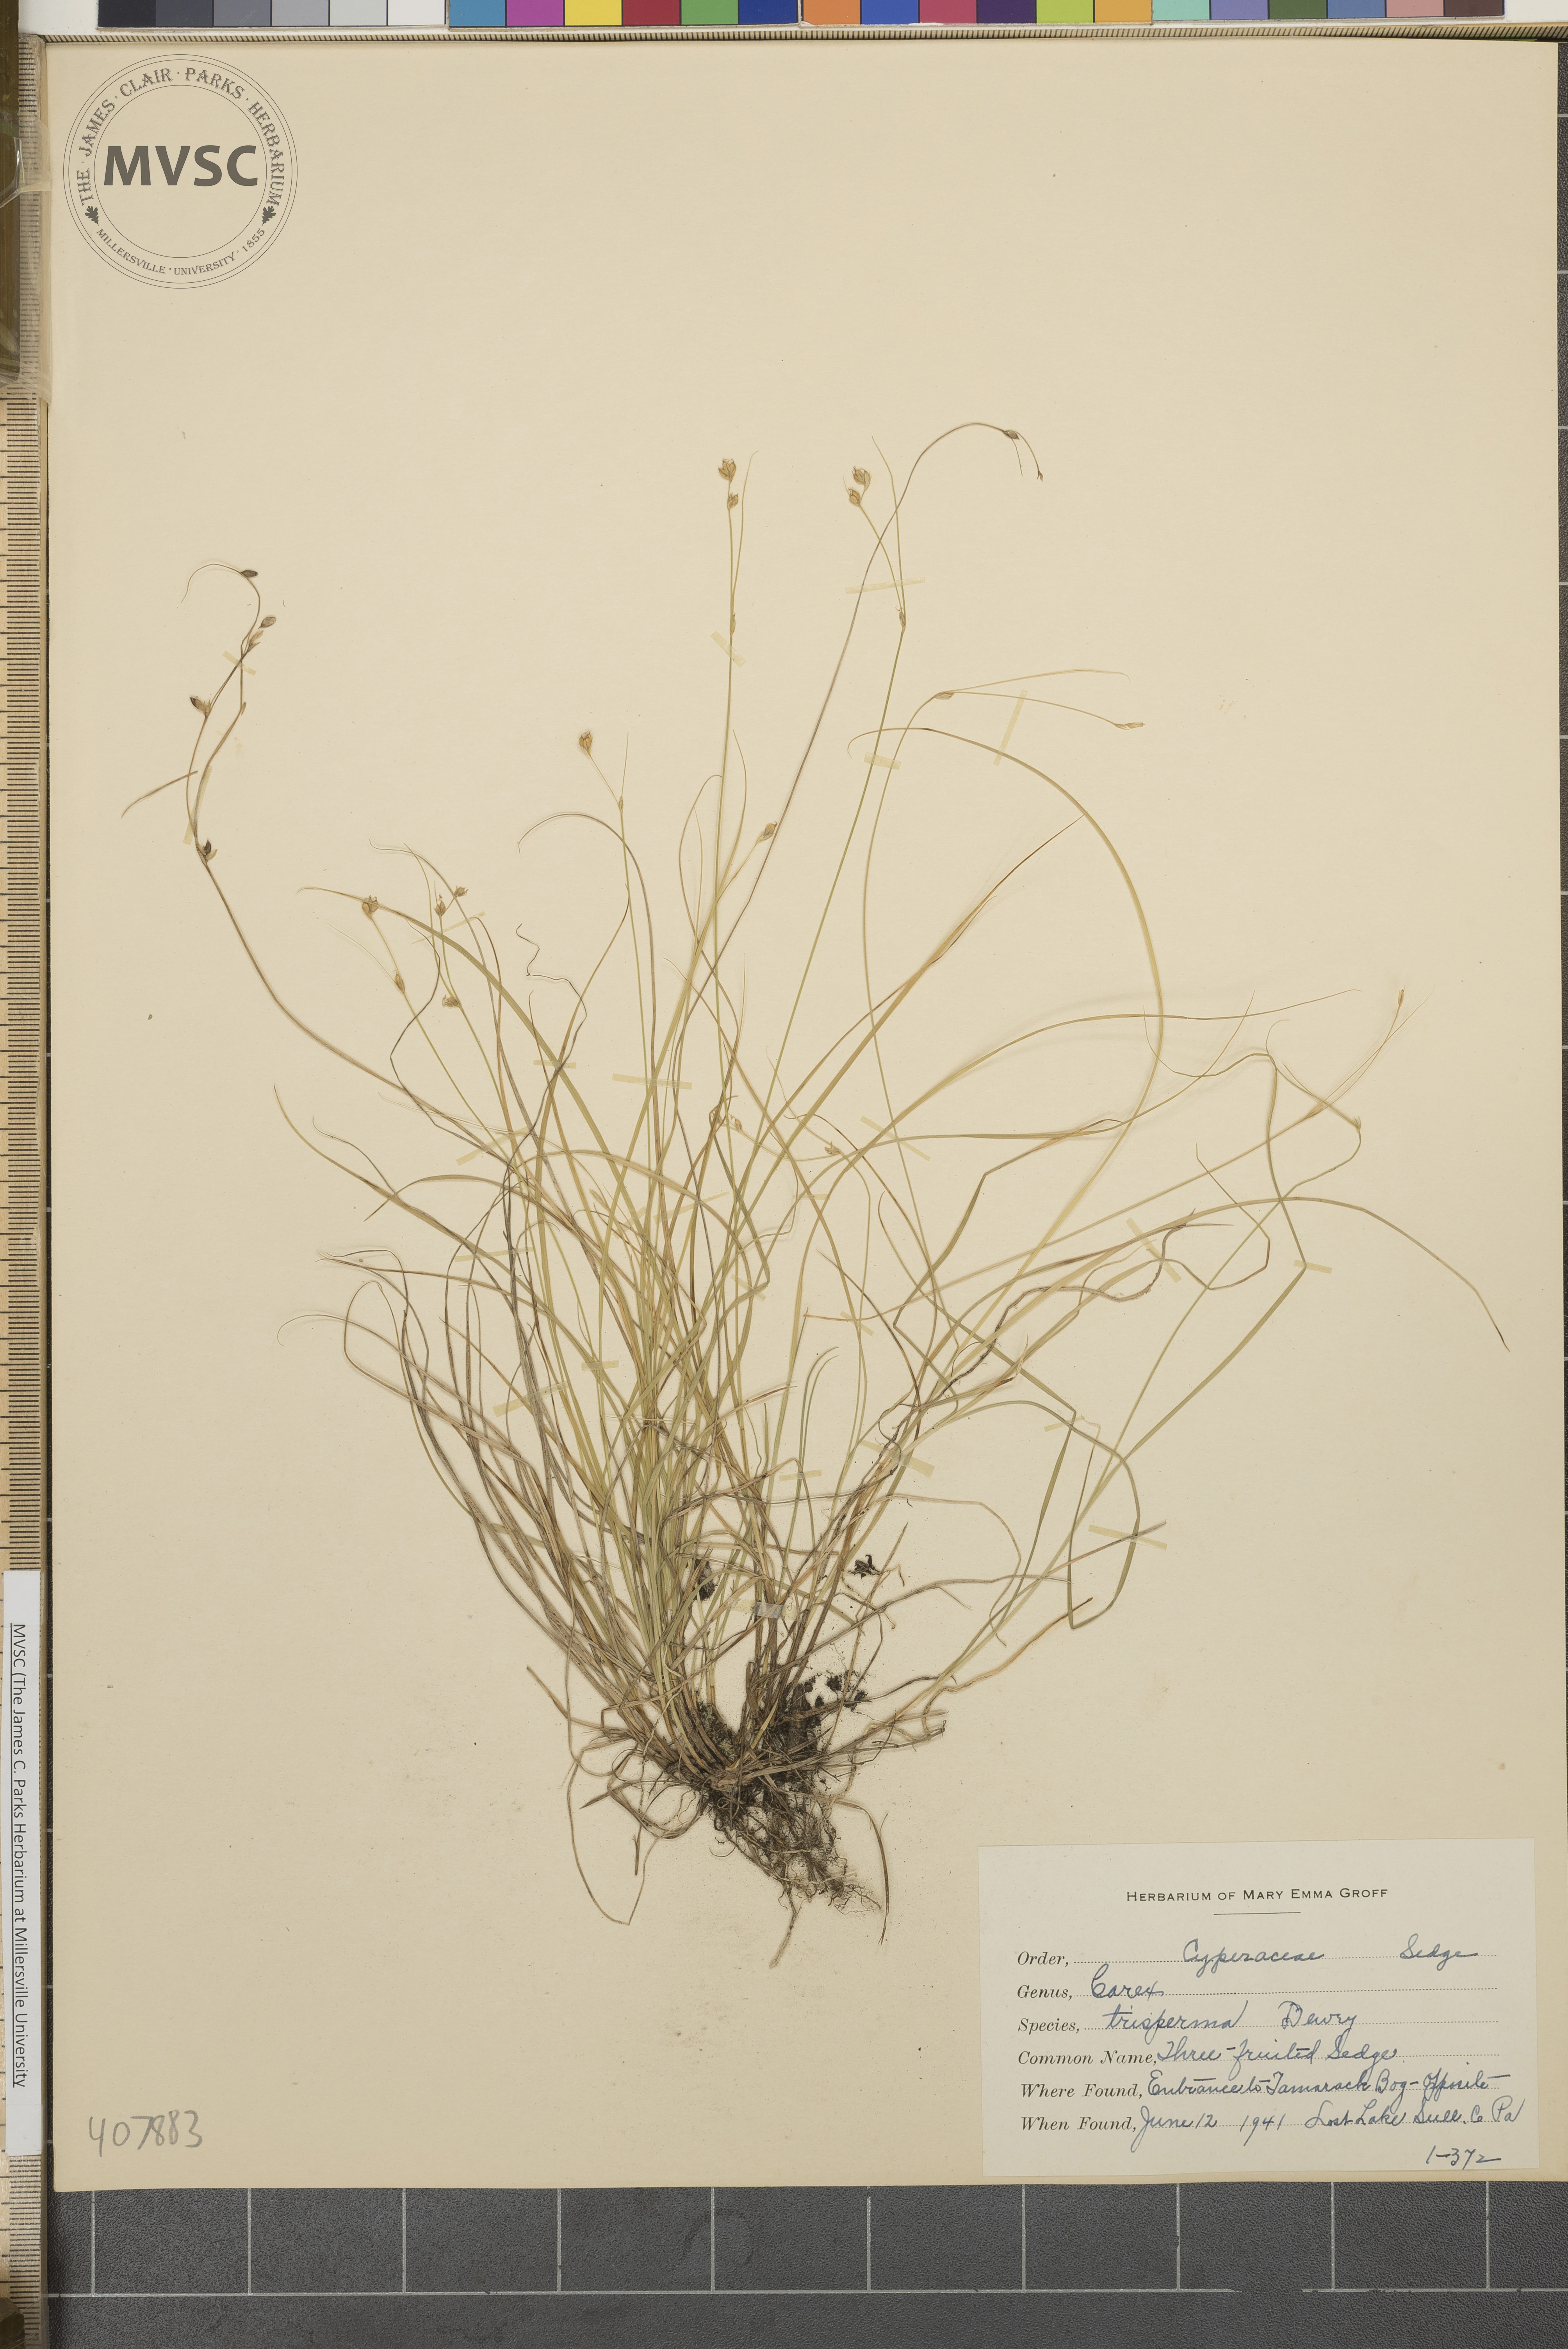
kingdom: Plantae
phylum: Tracheophyta
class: Liliopsida
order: Poales
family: Cyperaceae
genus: Carex
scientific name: Carex trisperma
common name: Three-fruited Sedge
